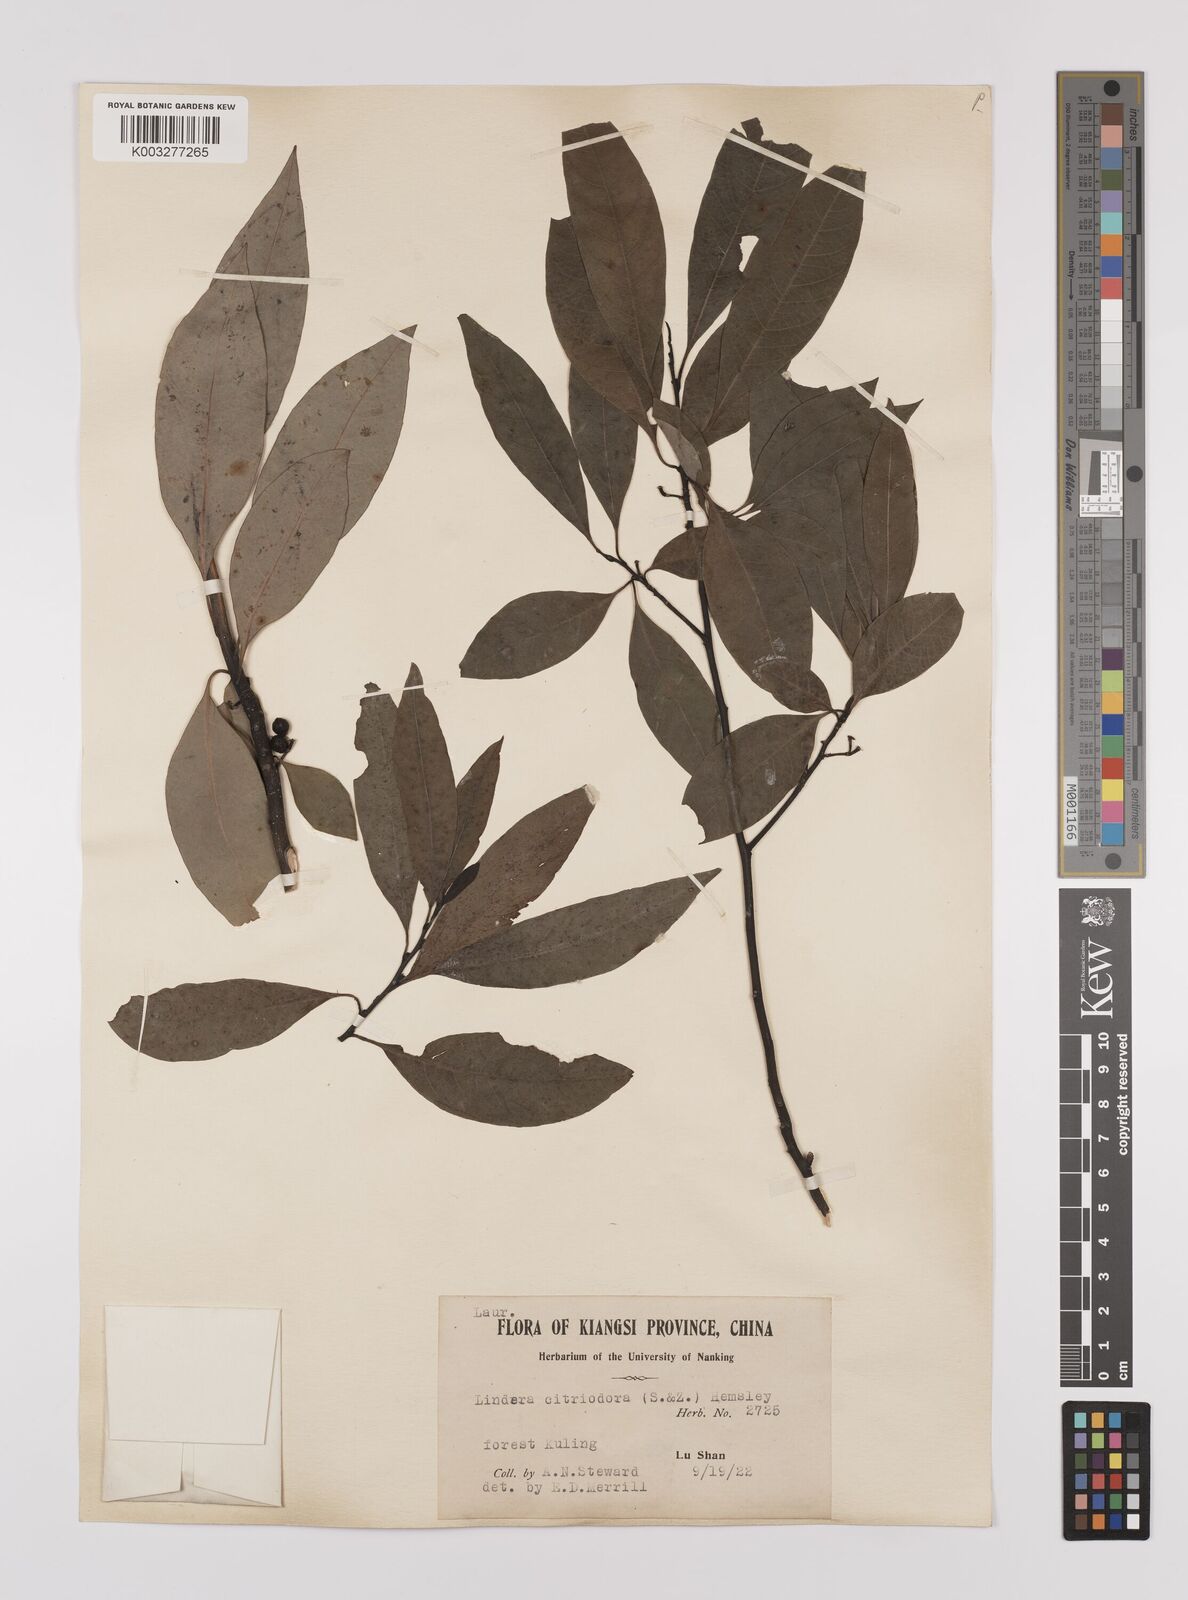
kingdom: Plantae
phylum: Tracheophyta
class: Magnoliopsida
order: Laurales
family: Lauraceae
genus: Litsea
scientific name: Litsea cubeba
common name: Mountain-pepper
